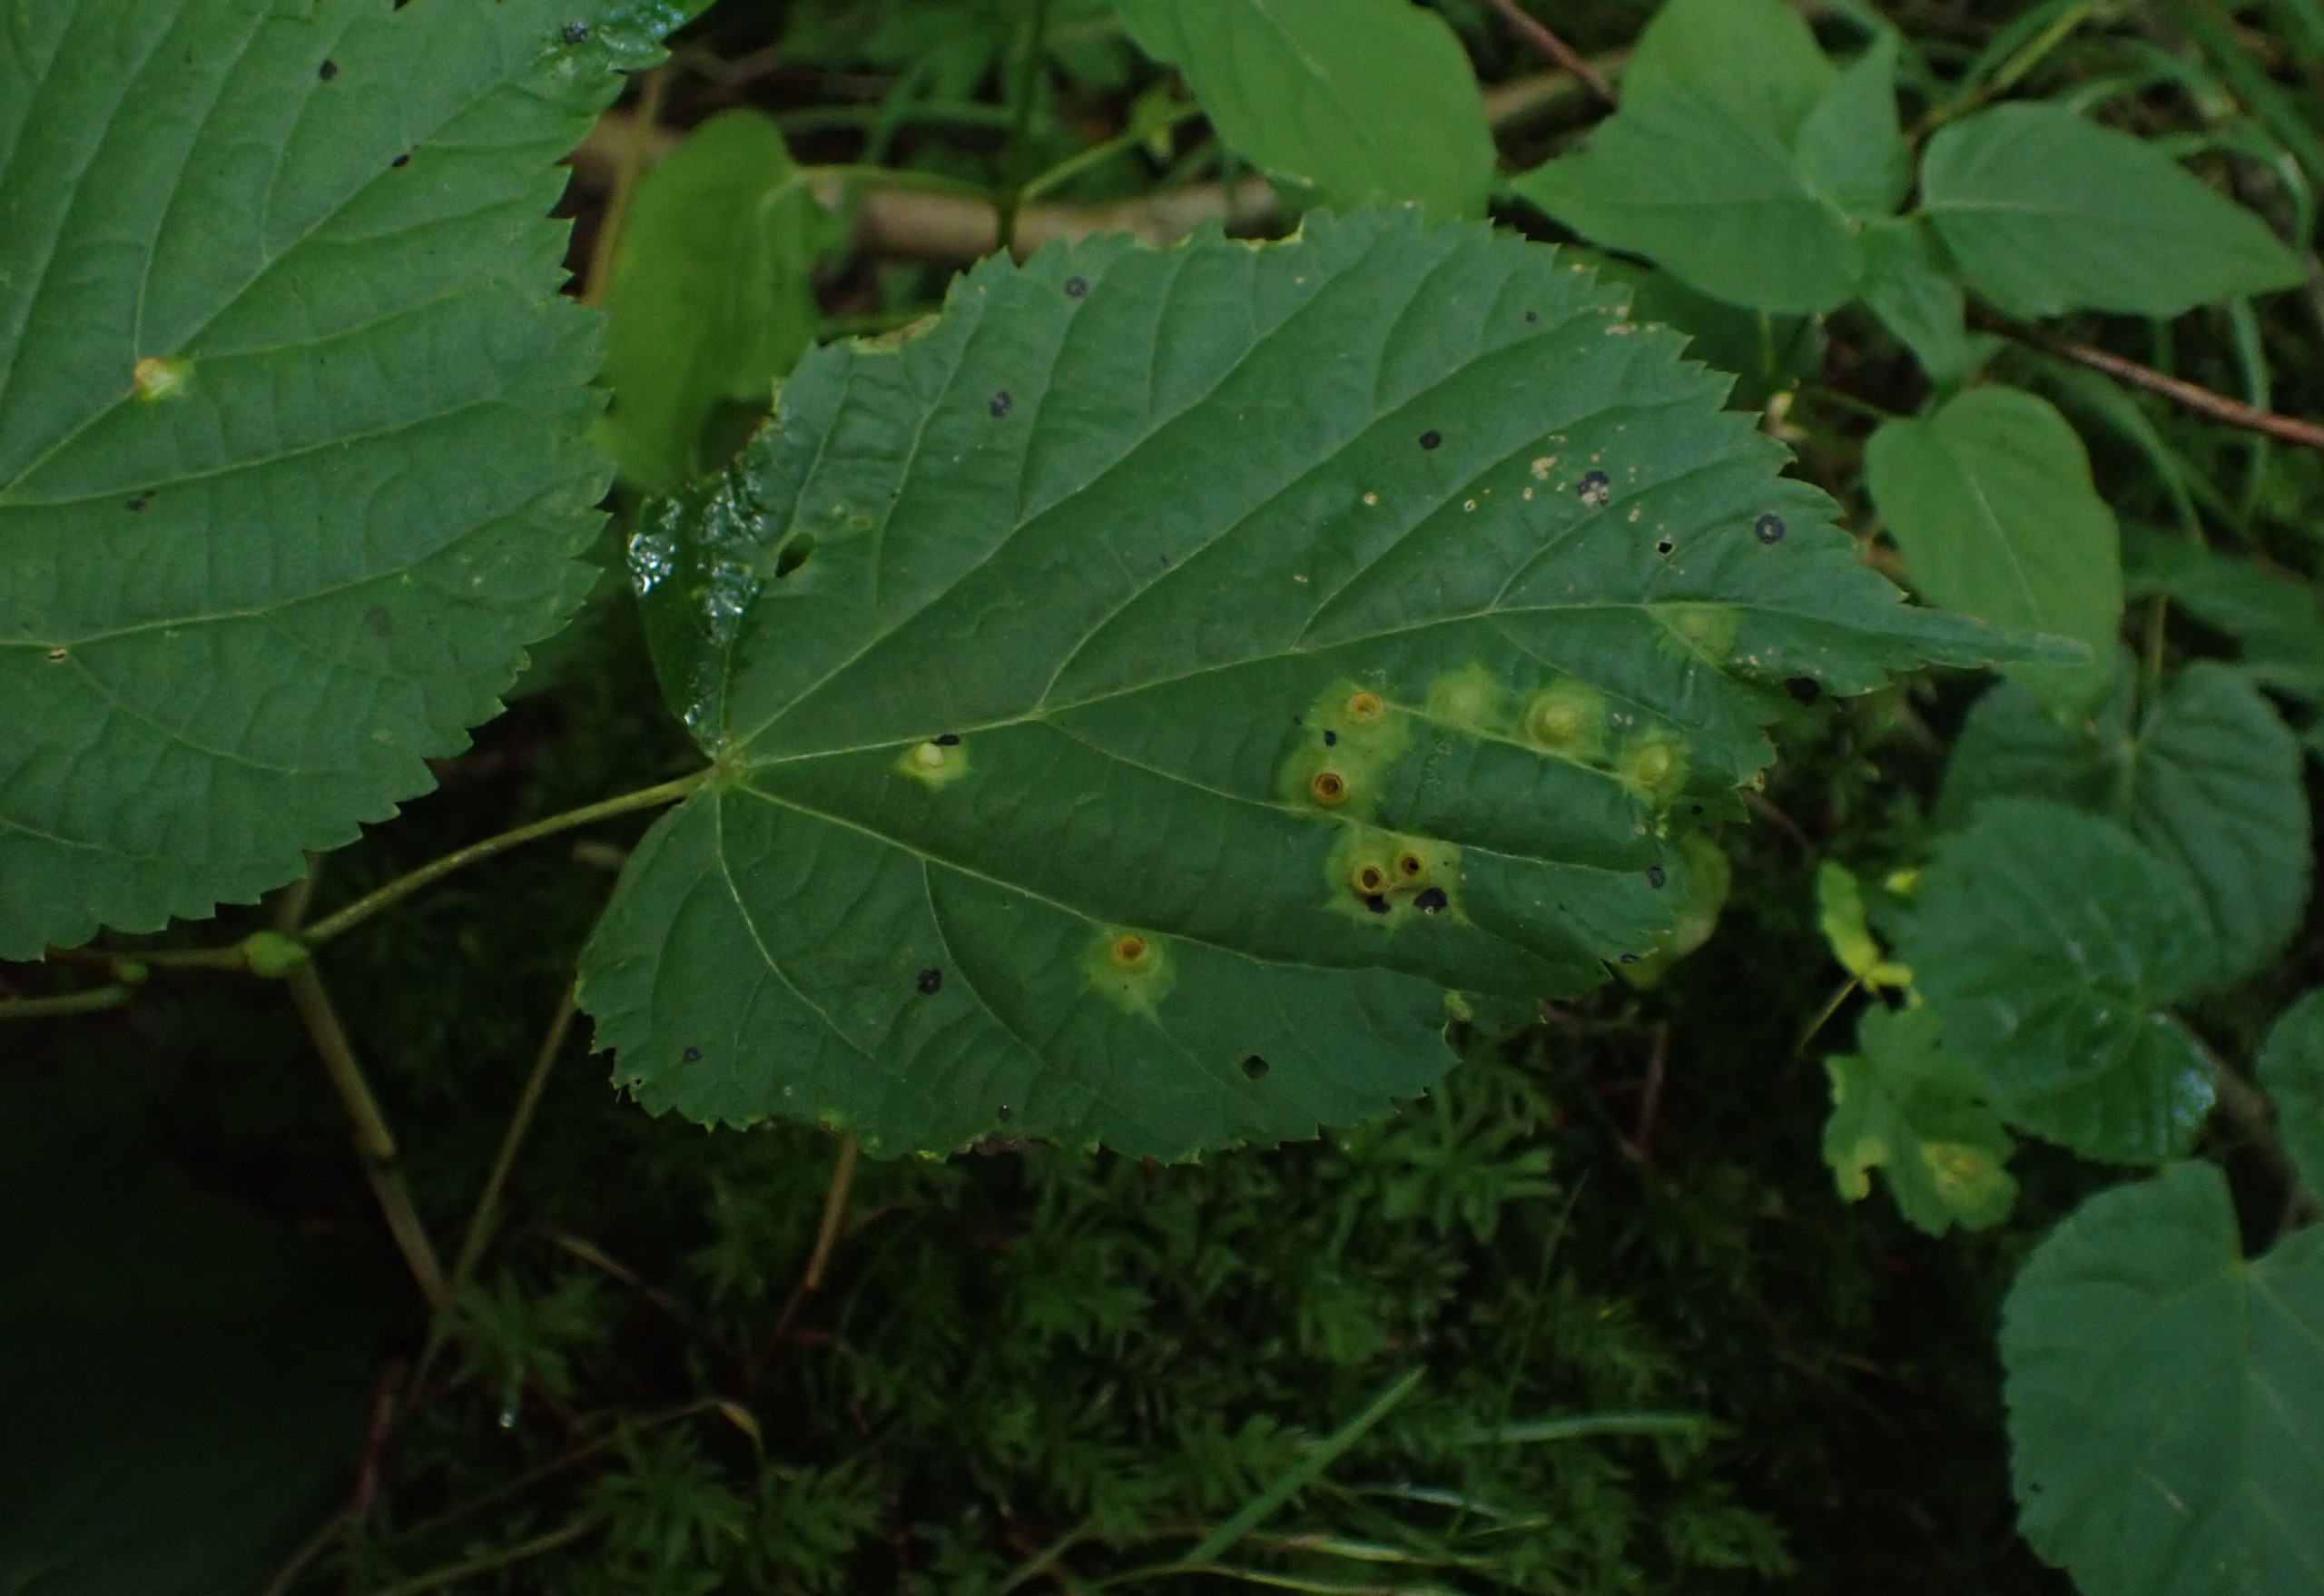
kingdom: Animalia
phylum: Arthropoda
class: Insecta
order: Diptera
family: Cecidomyiidae
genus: Didymomyia
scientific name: Didymomyia tiliacea
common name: Babusjkagalmyg
